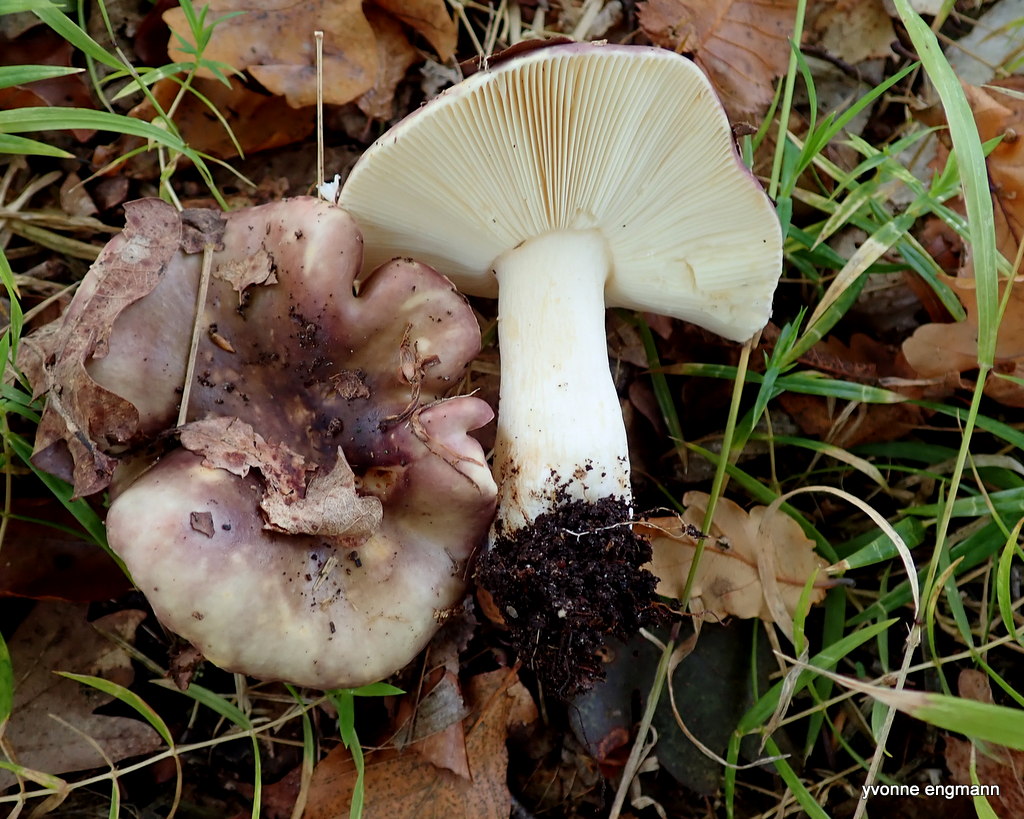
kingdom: Fungi
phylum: Basidiomycota
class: Agaricomycetes
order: Russulales
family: Russulaceae
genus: Russula
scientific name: Russula
